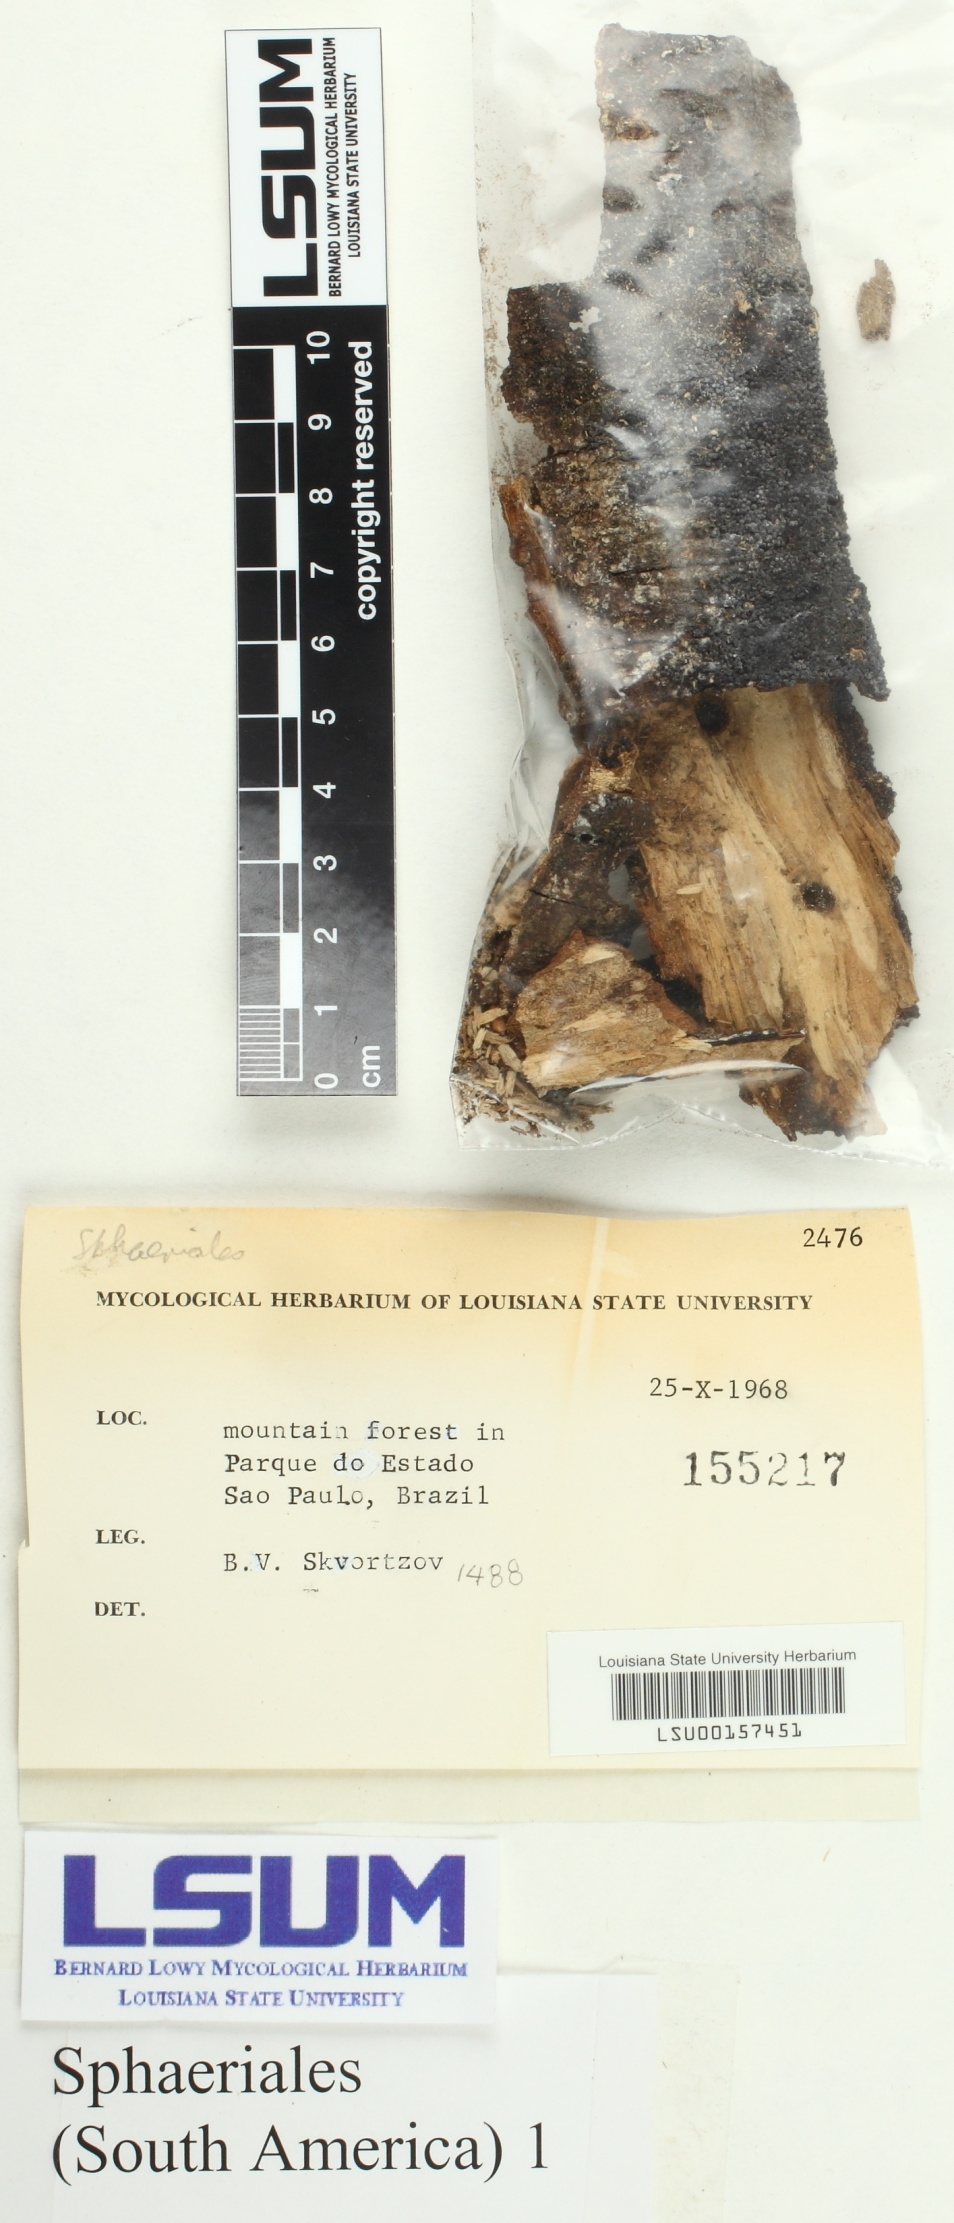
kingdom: Fungi
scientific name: Fungi
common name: Fungi
